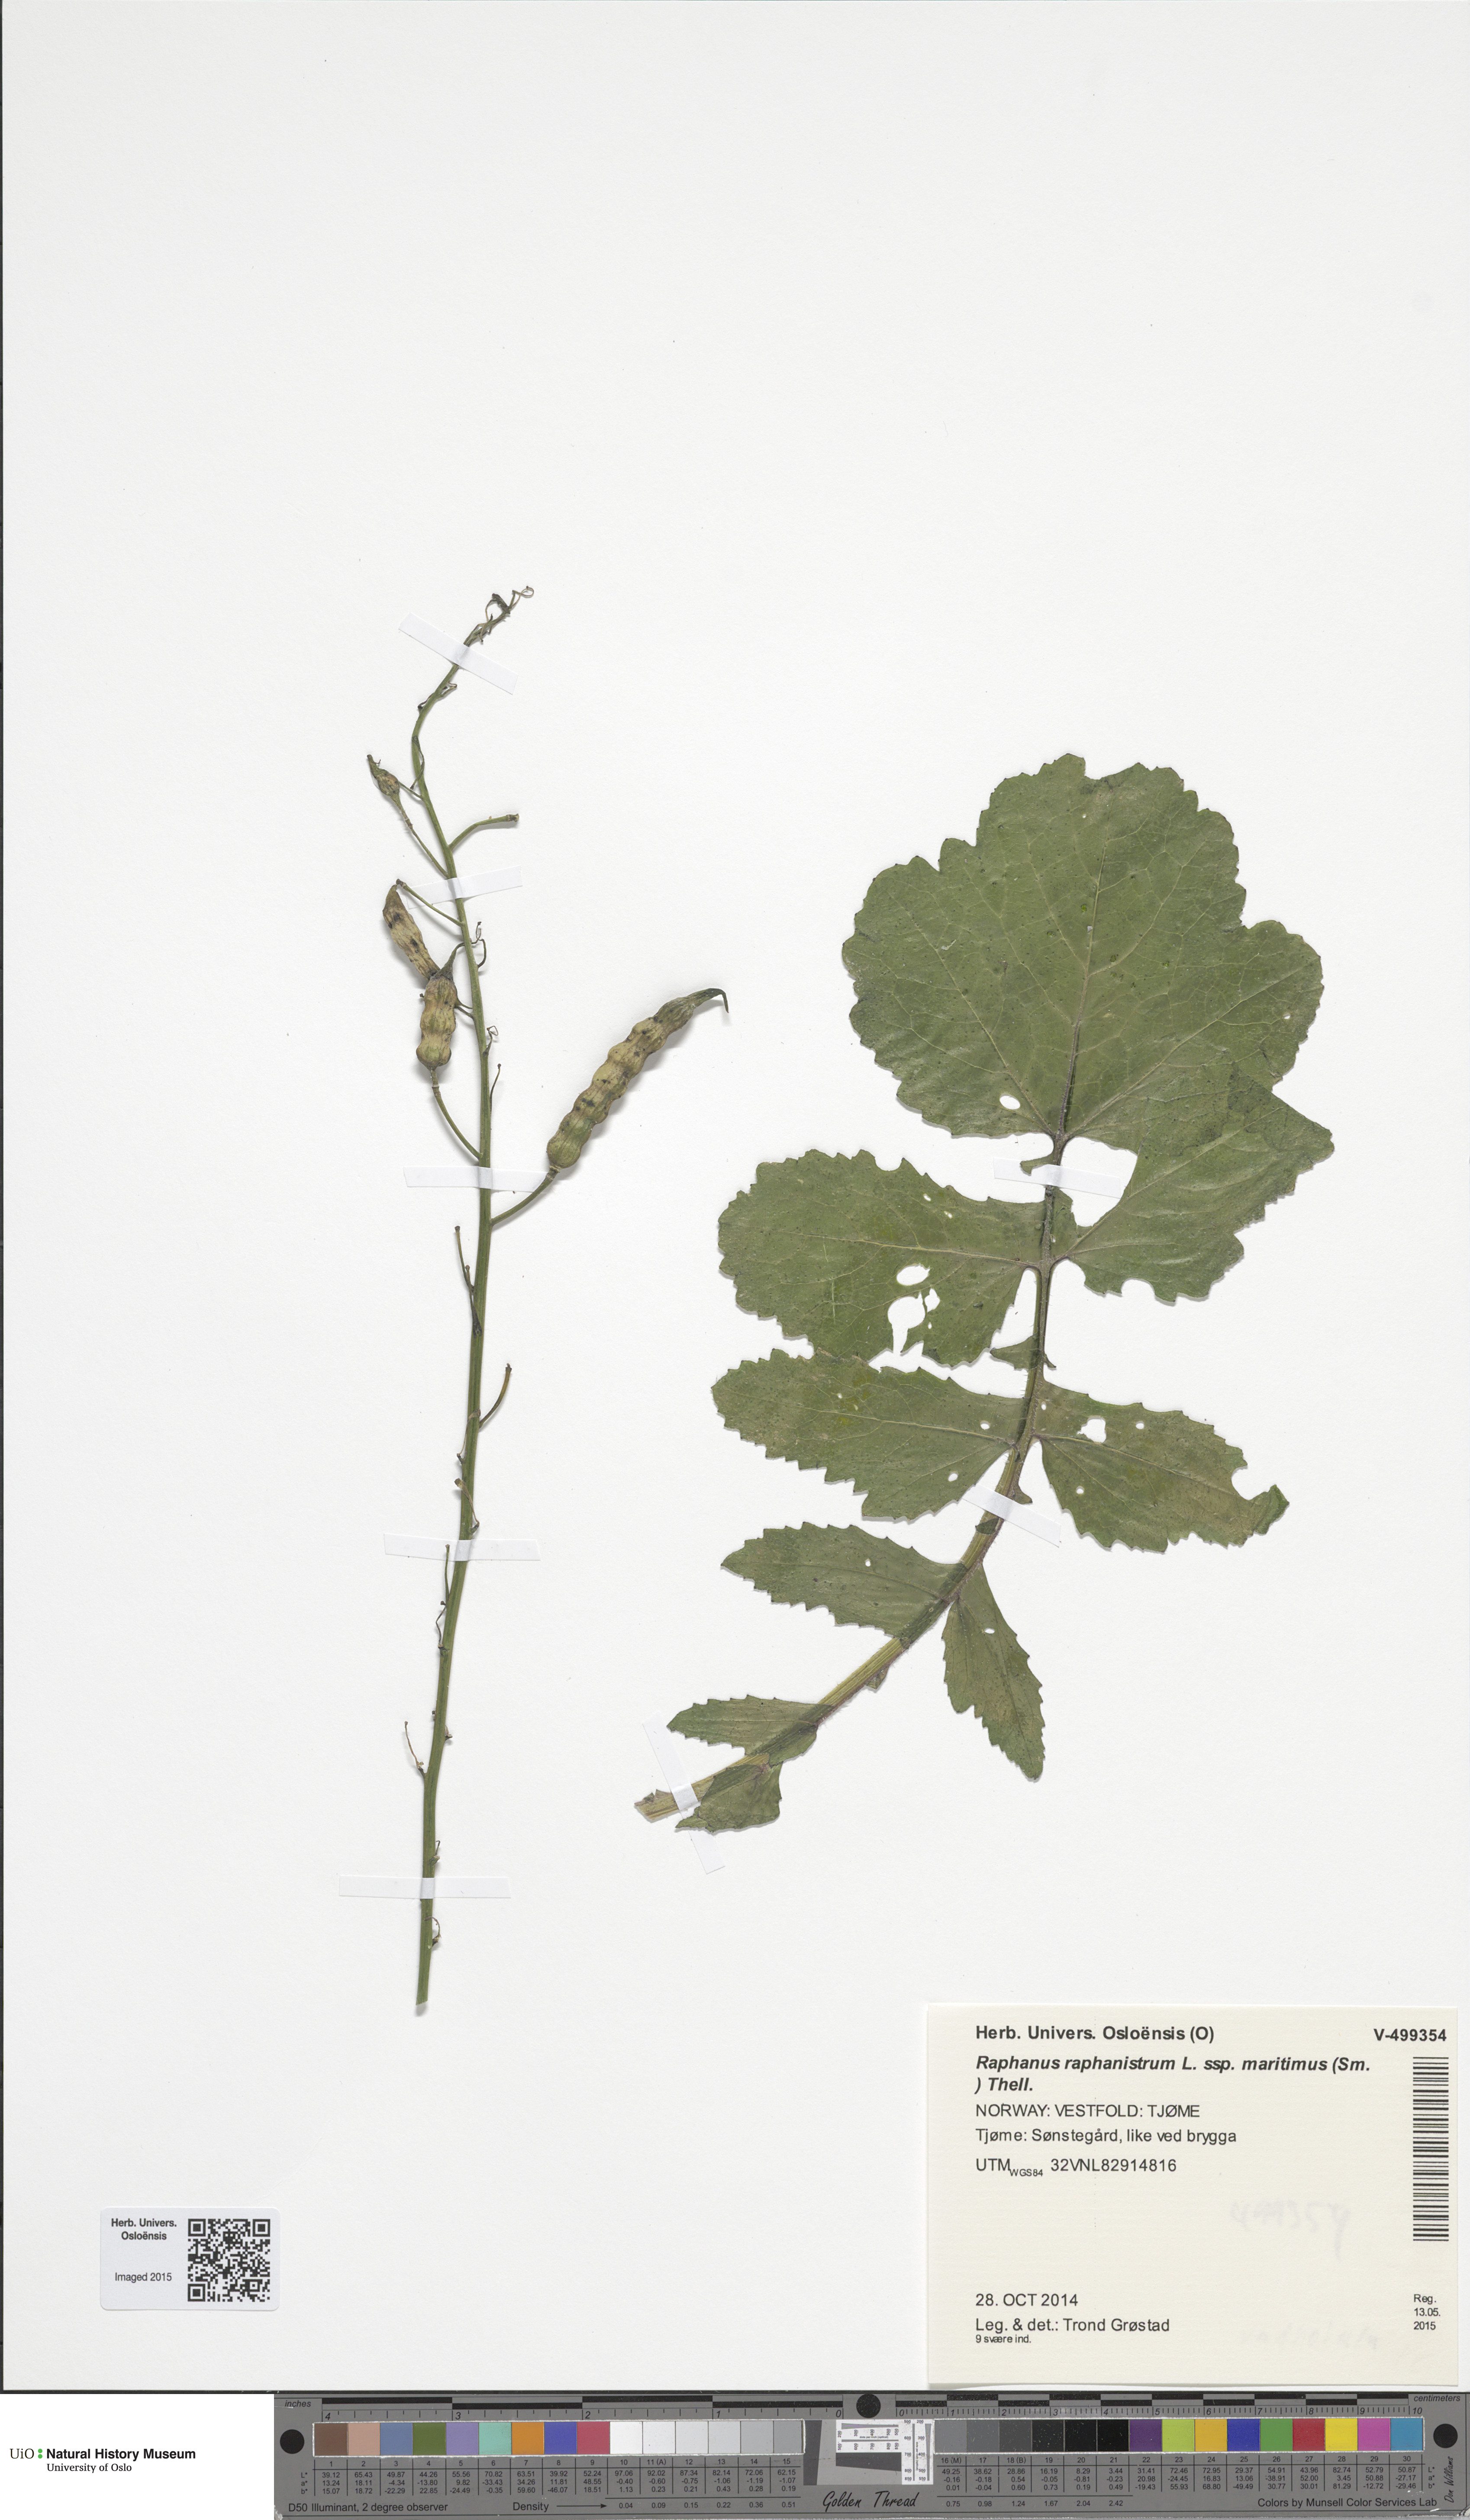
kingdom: Plantae
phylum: Tracheophyta
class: Magnoliopsida
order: Brassicales
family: Brassicaceae
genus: Raphanus
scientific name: Raphanus raphanistrum
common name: Wild radish
